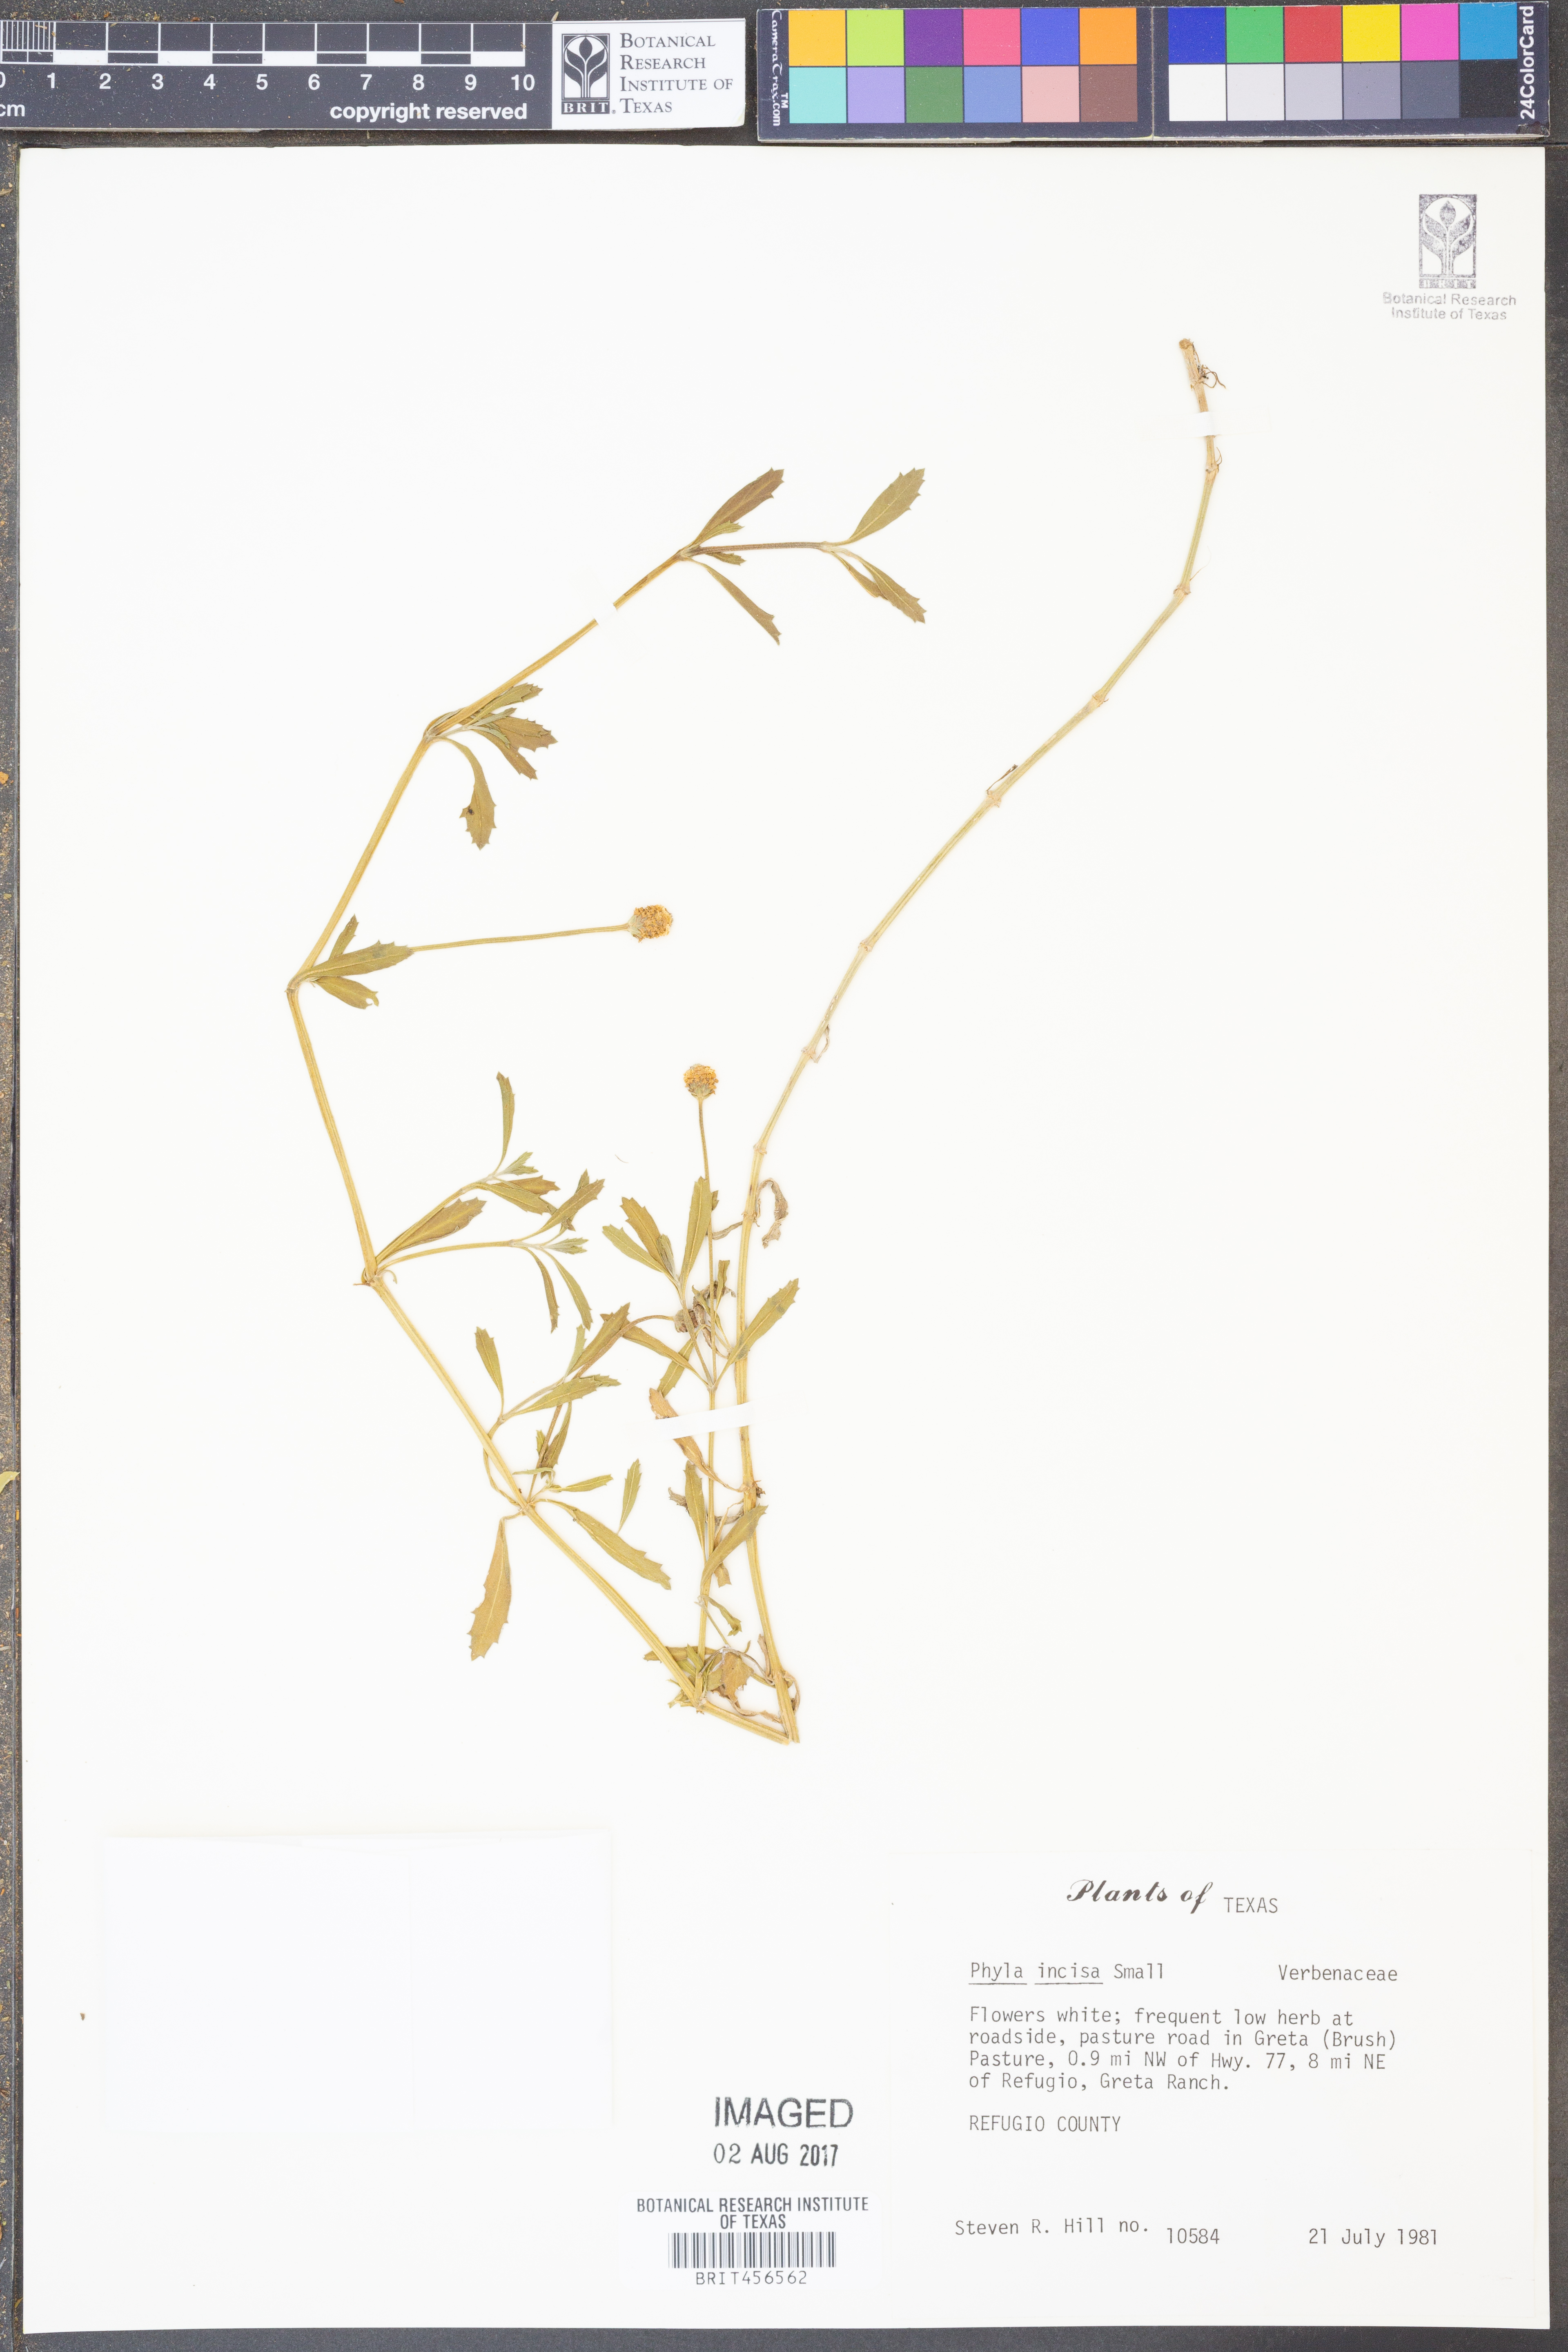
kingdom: Plantae
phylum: Tracheophyta
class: Magnoliopsida
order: Lamiales
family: Verbenaceae
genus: Phyla
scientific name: Phyla nodiflora
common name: Frogfruit
